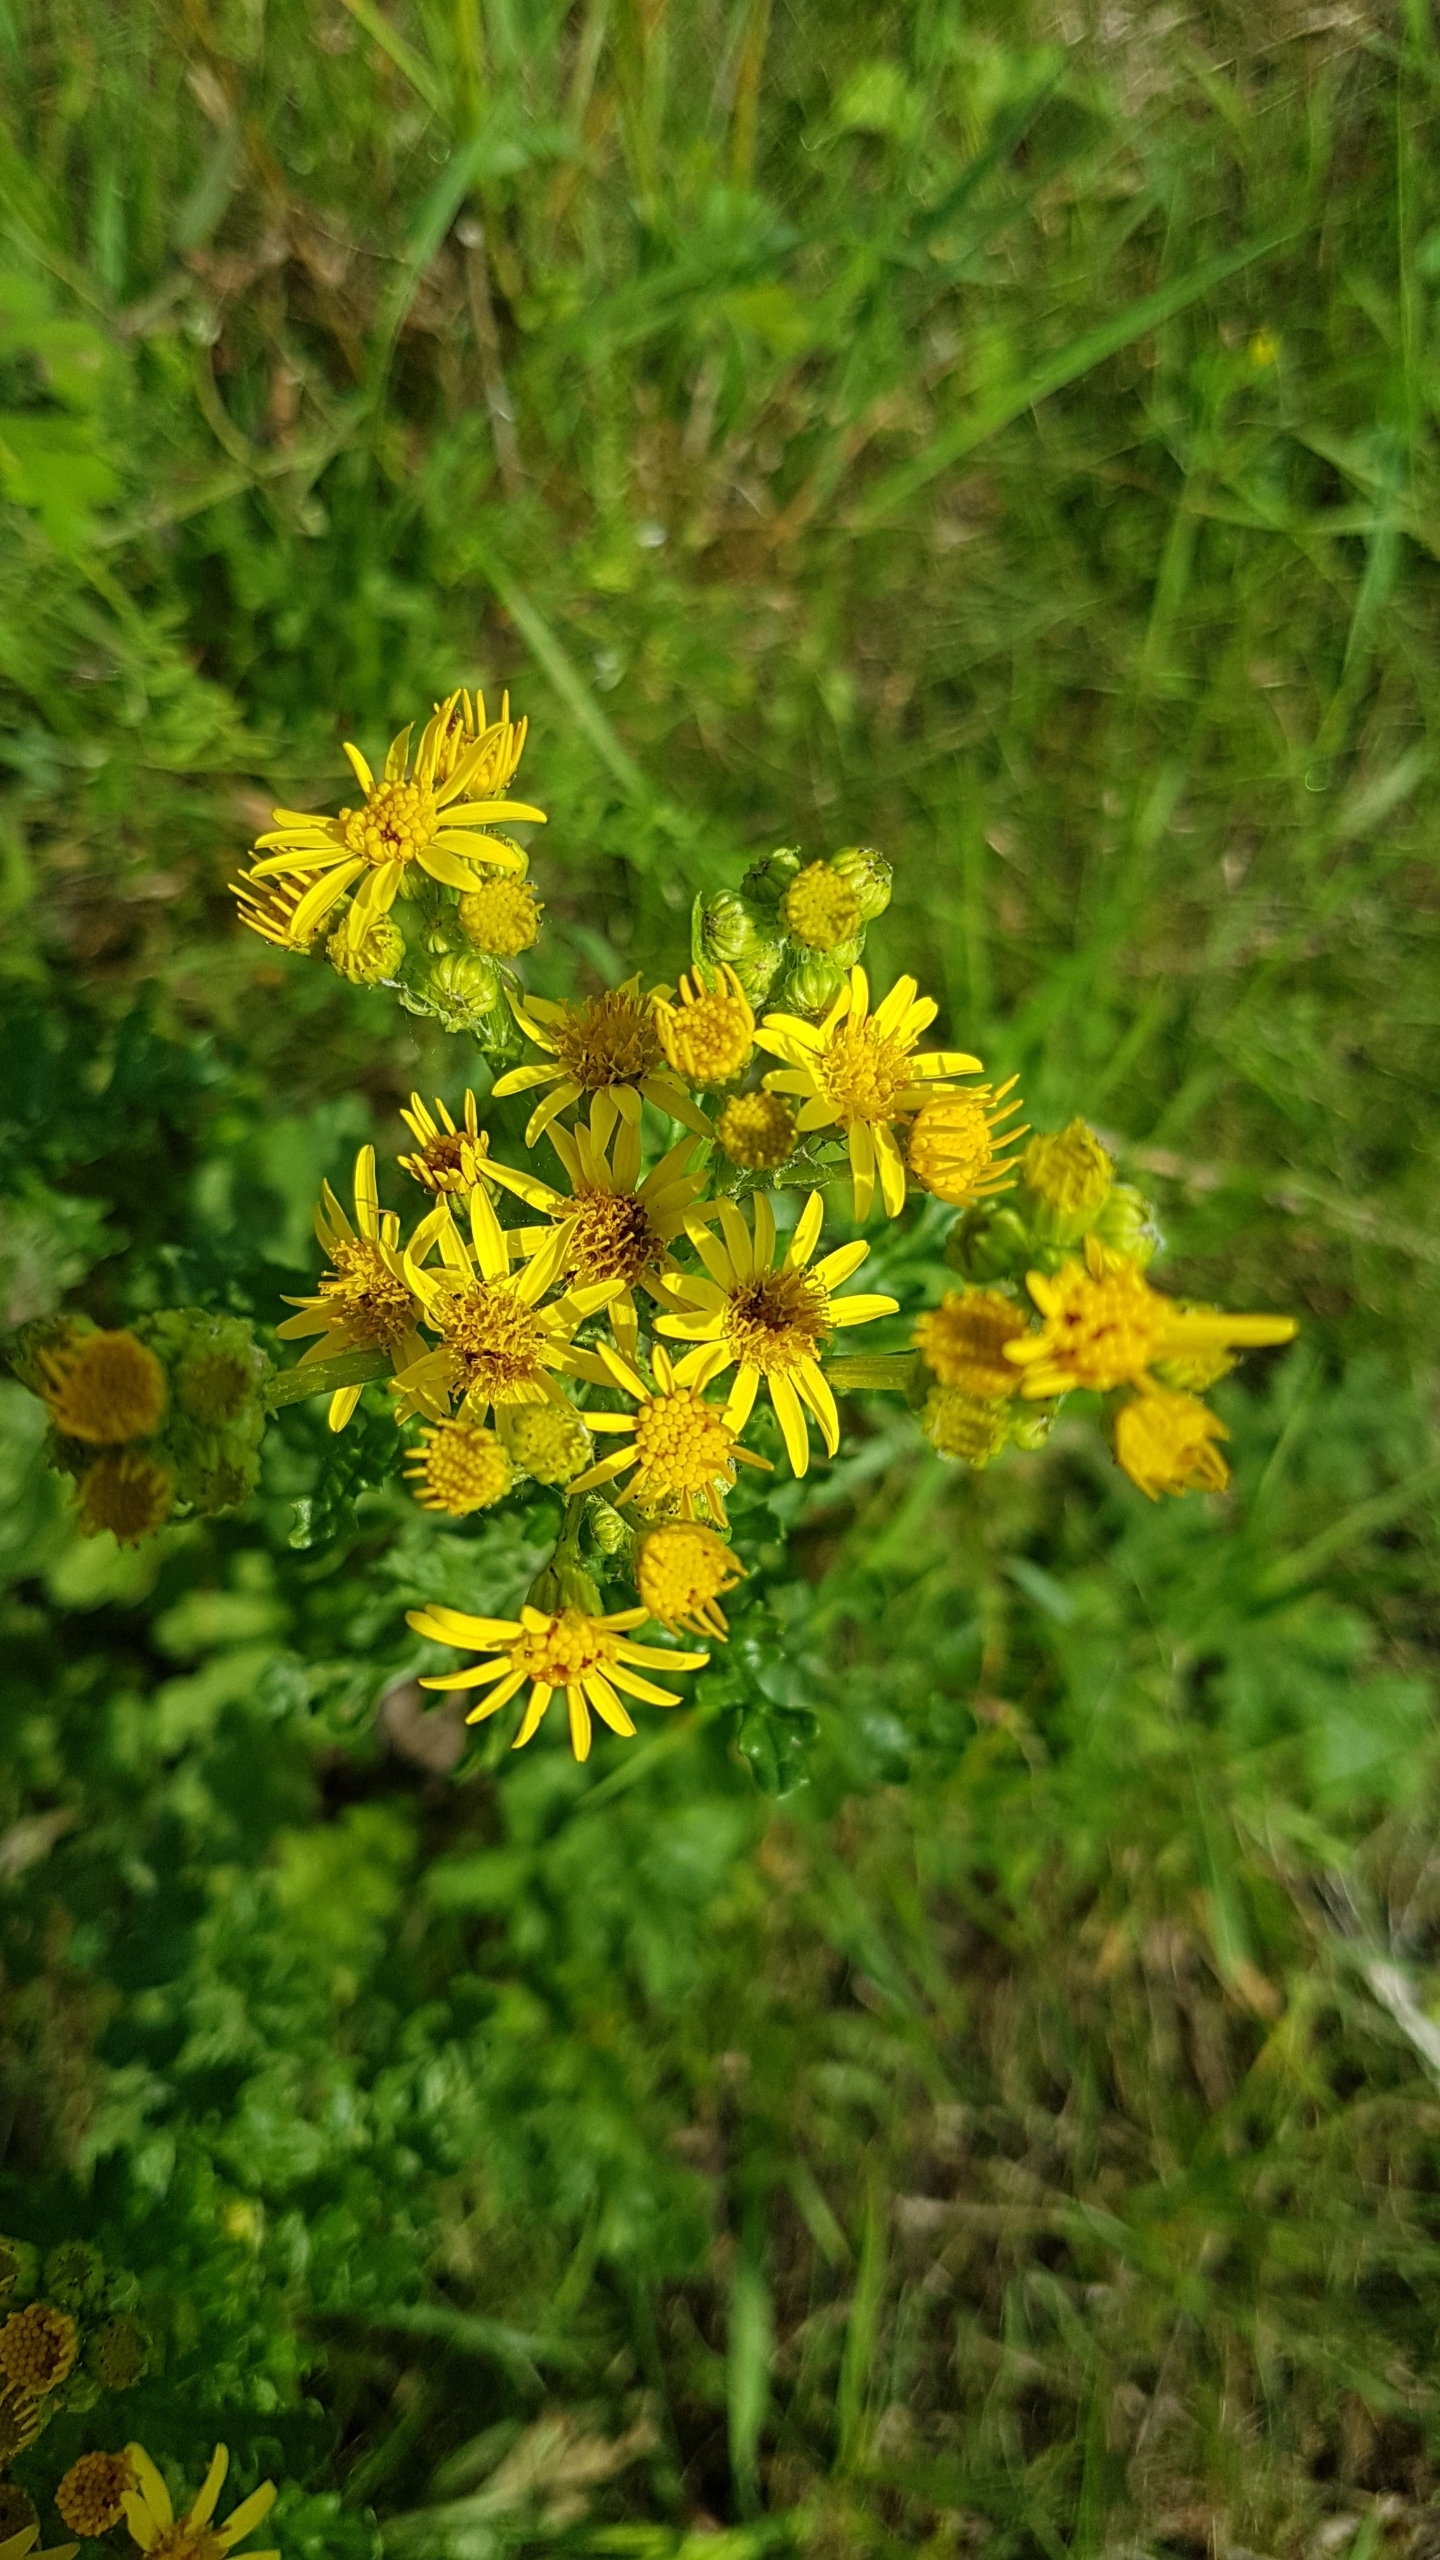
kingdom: Plantae
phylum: Tracheophyta
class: Magnoliopsida
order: Asterales
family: Asteraceae
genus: Jacobaea
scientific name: Jacobaea vulgaris
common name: Eng-brandbæger
